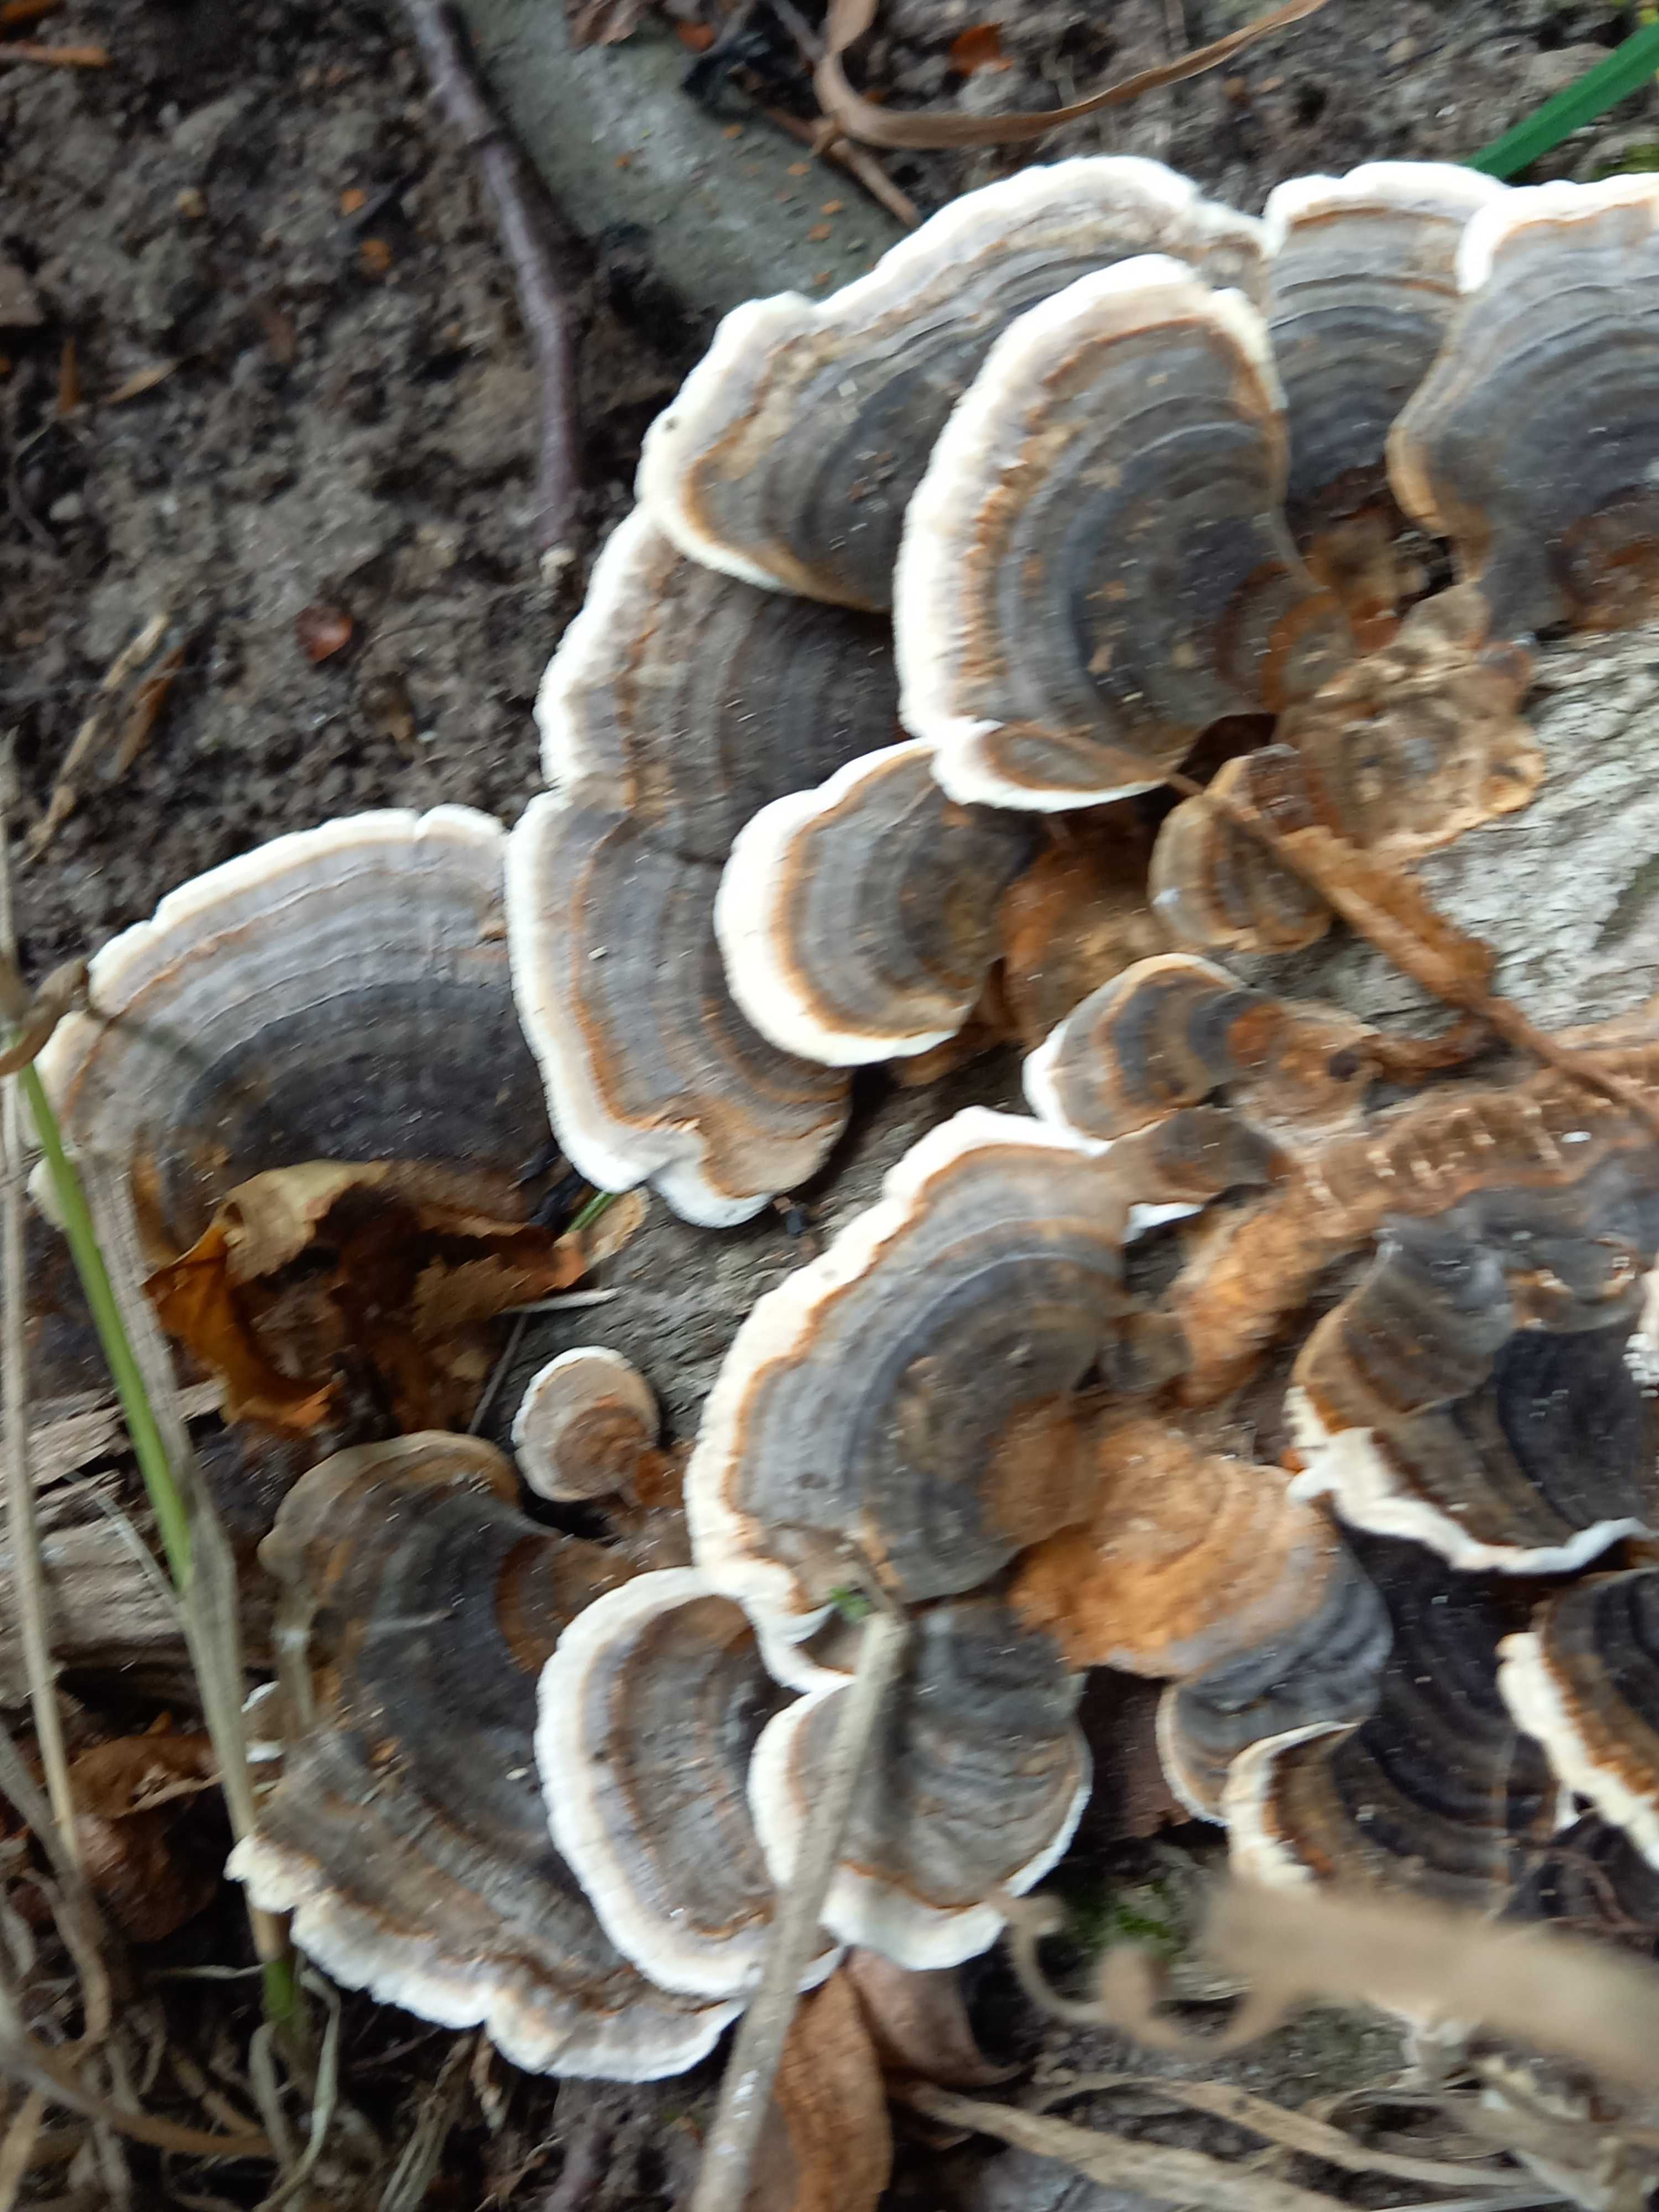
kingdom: Fungi
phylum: Basidiomycota
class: Agaricomycetes
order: Polyporales
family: Polyporaceae
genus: Trametes
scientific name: Trametes versicolor
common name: broget læderporesvamp
